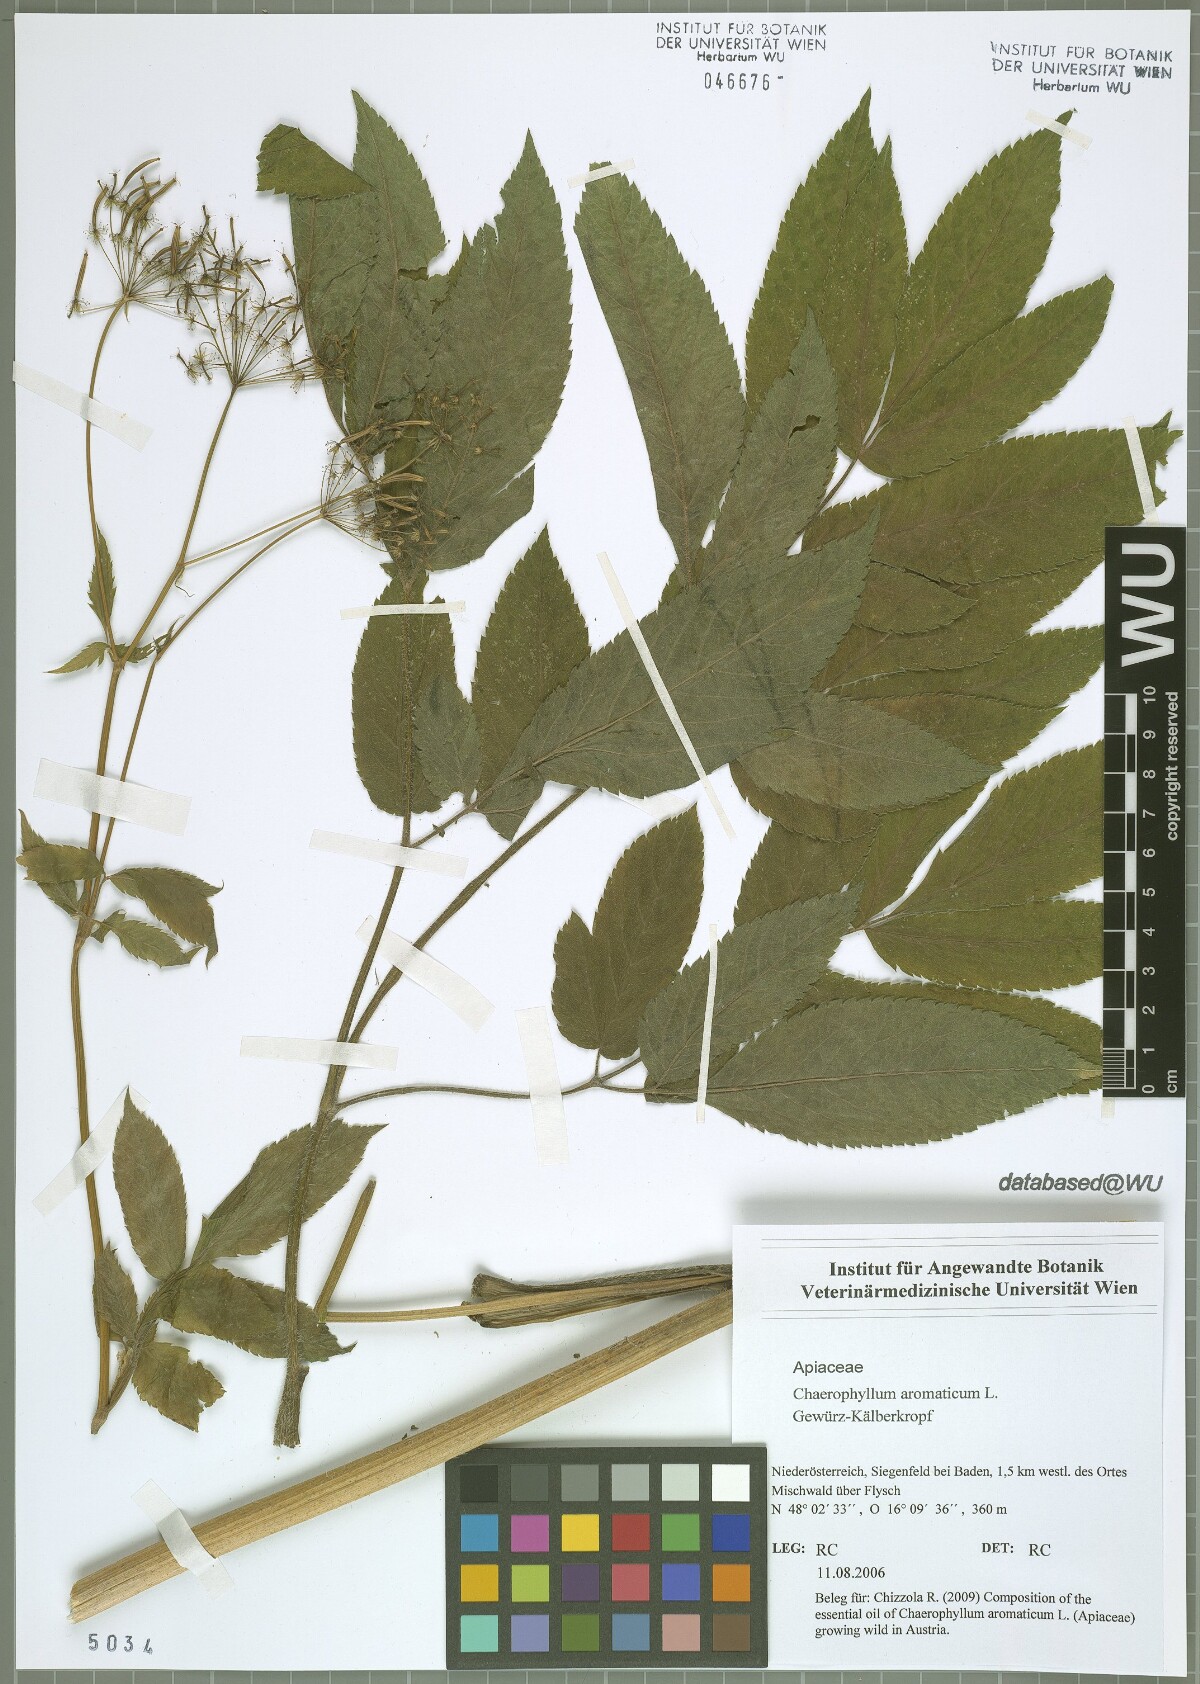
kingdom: Plantae
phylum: Tracheophyta
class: Magnoliopsida
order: Apiales
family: Apiaceae
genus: Chaerophyllum
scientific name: Chaerophyllum aromaticum
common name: Broadleaf chervil
